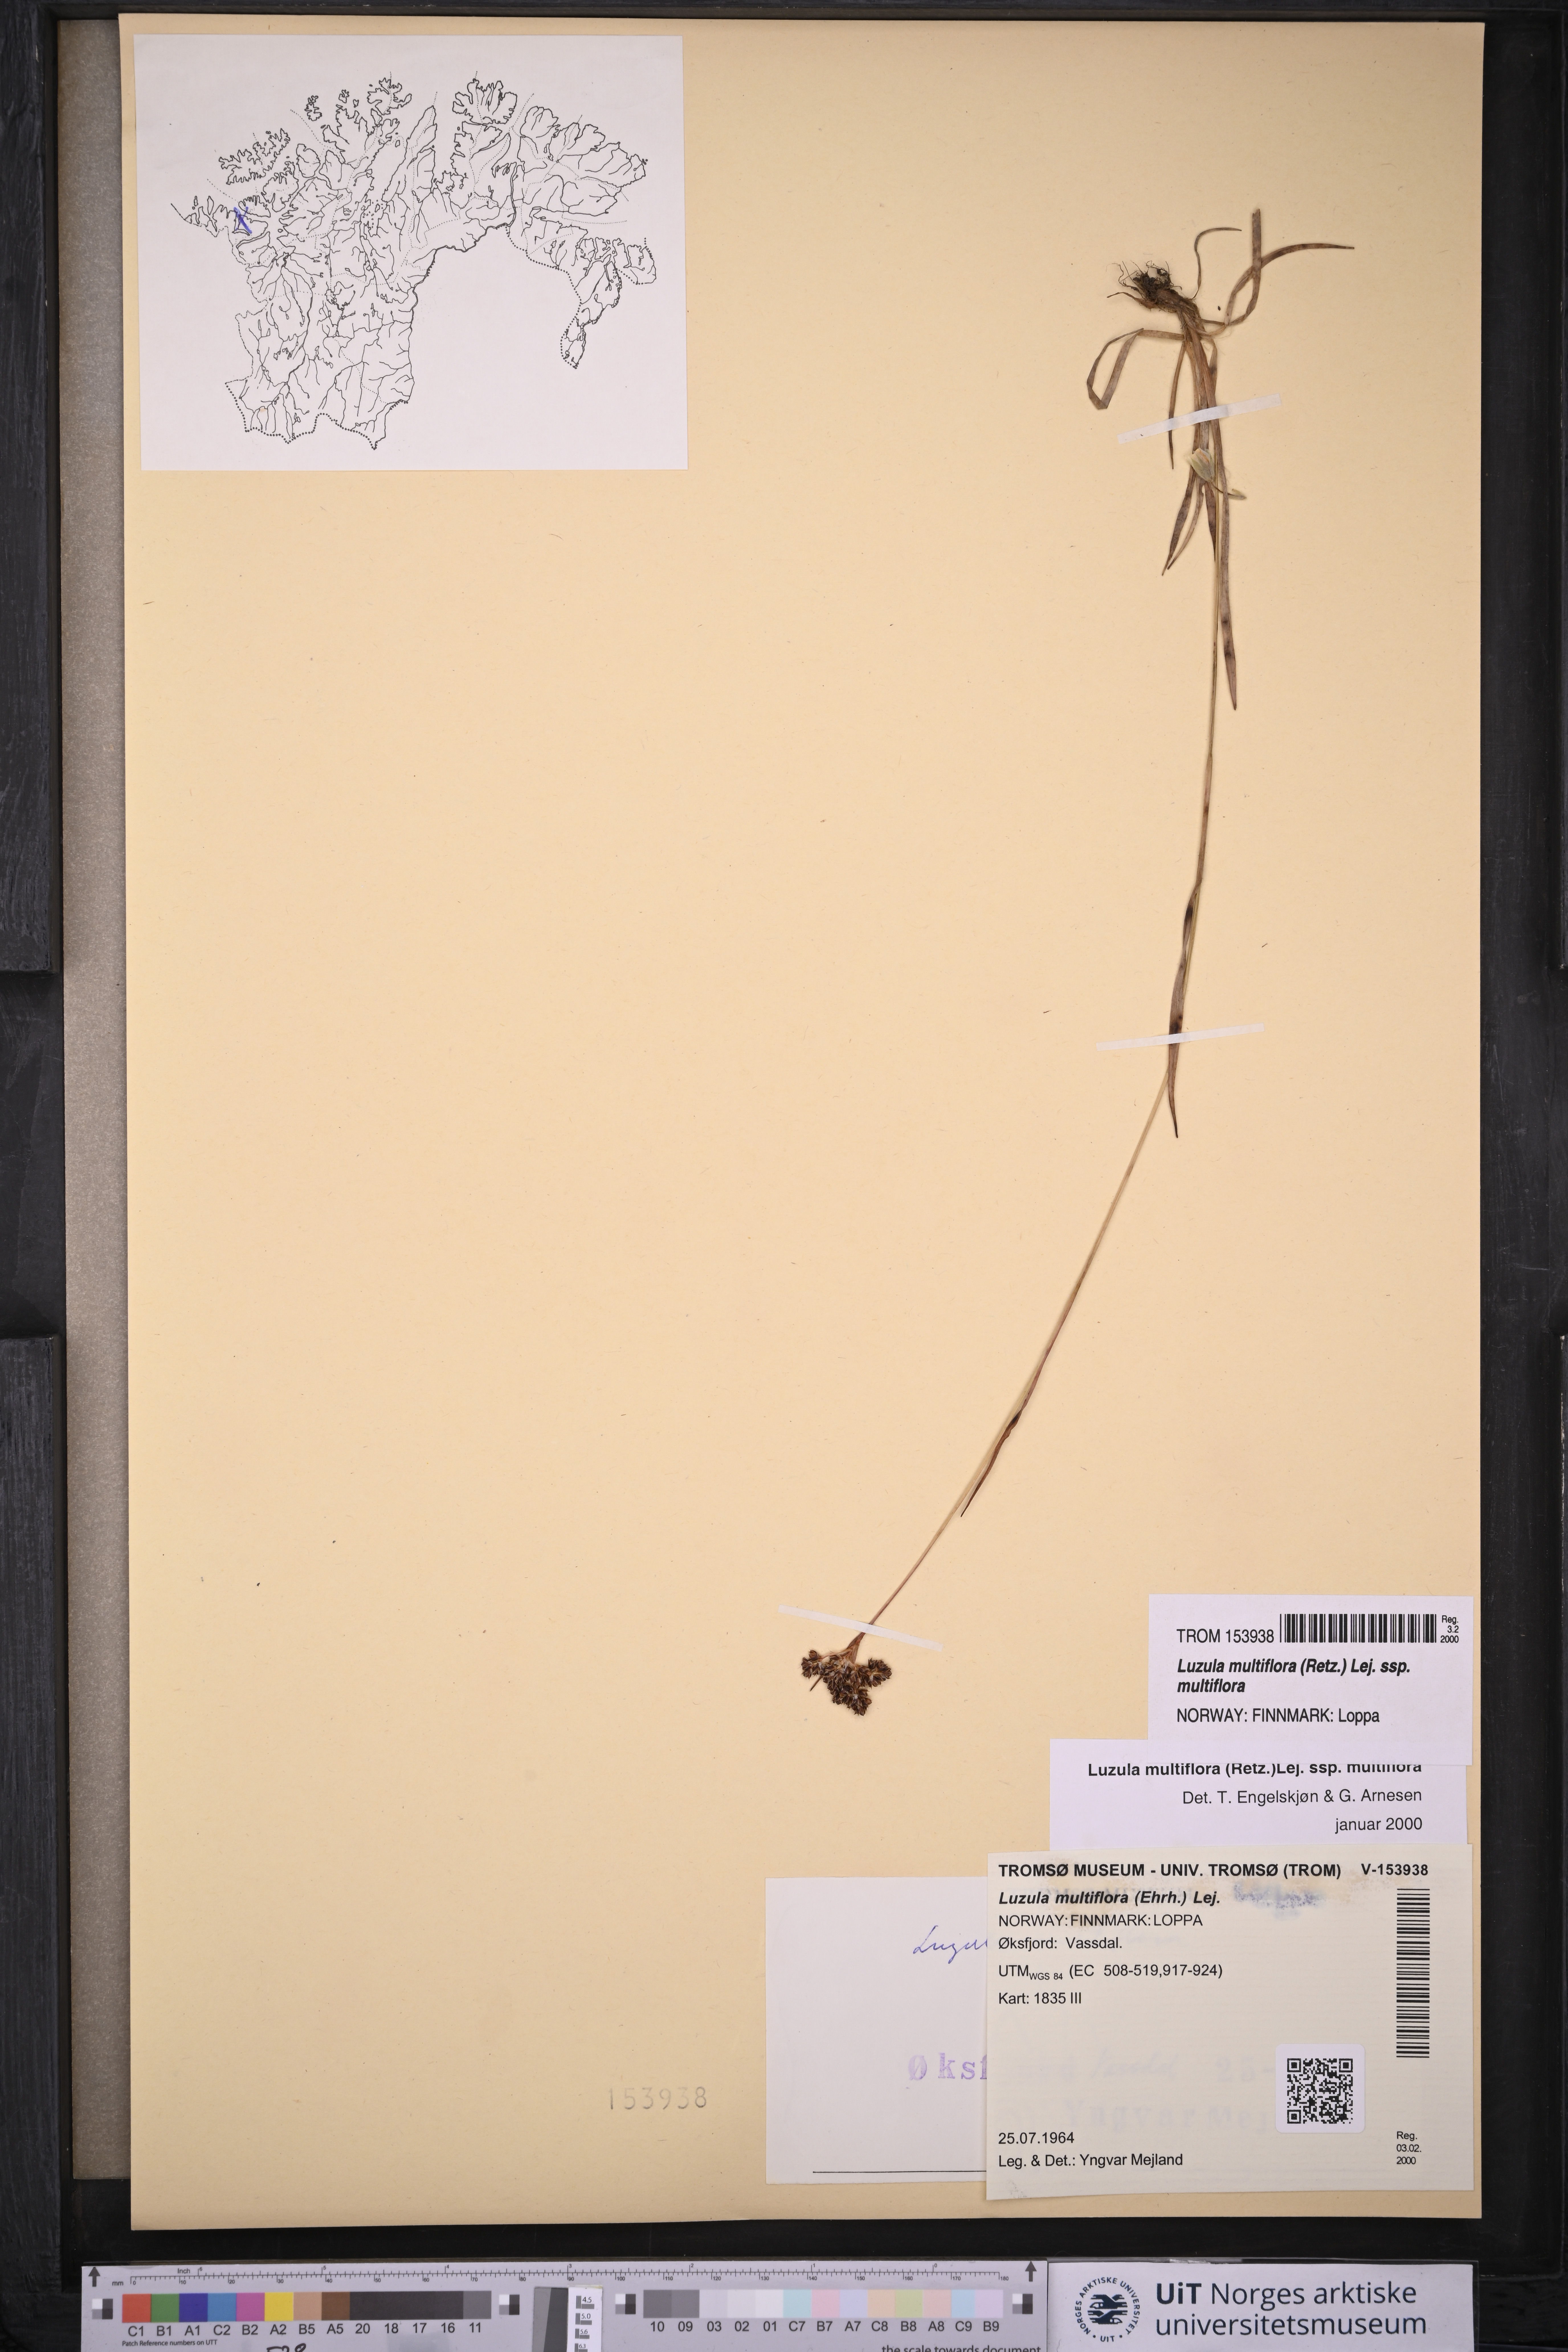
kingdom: Plantae
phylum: Tracheophyta
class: Liliopsida
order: Poales
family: Juncaceae
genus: Luzula
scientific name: Luzula multiflora
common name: Heath wood-rush
